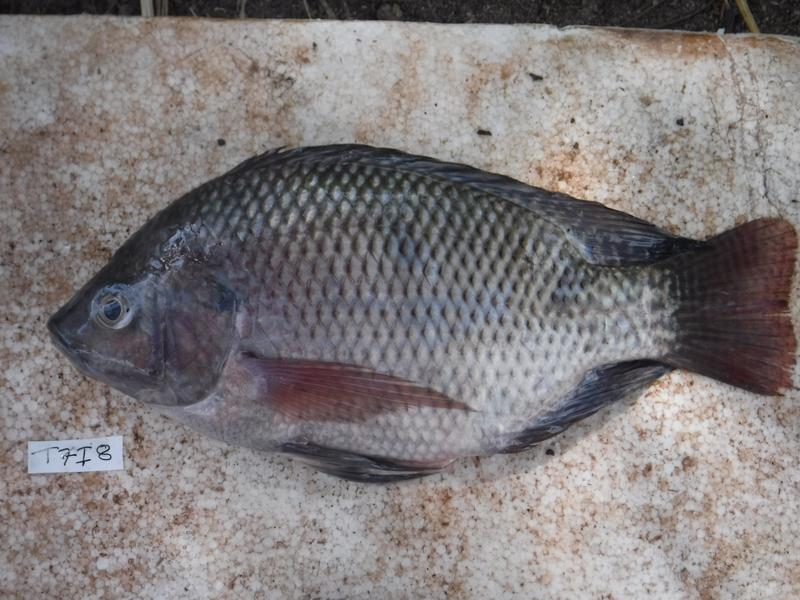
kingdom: Animalia
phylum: Chordata
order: Perciformes
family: Cichlidae
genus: Oreochromis
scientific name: Oreochromis niloticus
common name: Nile tilapia
